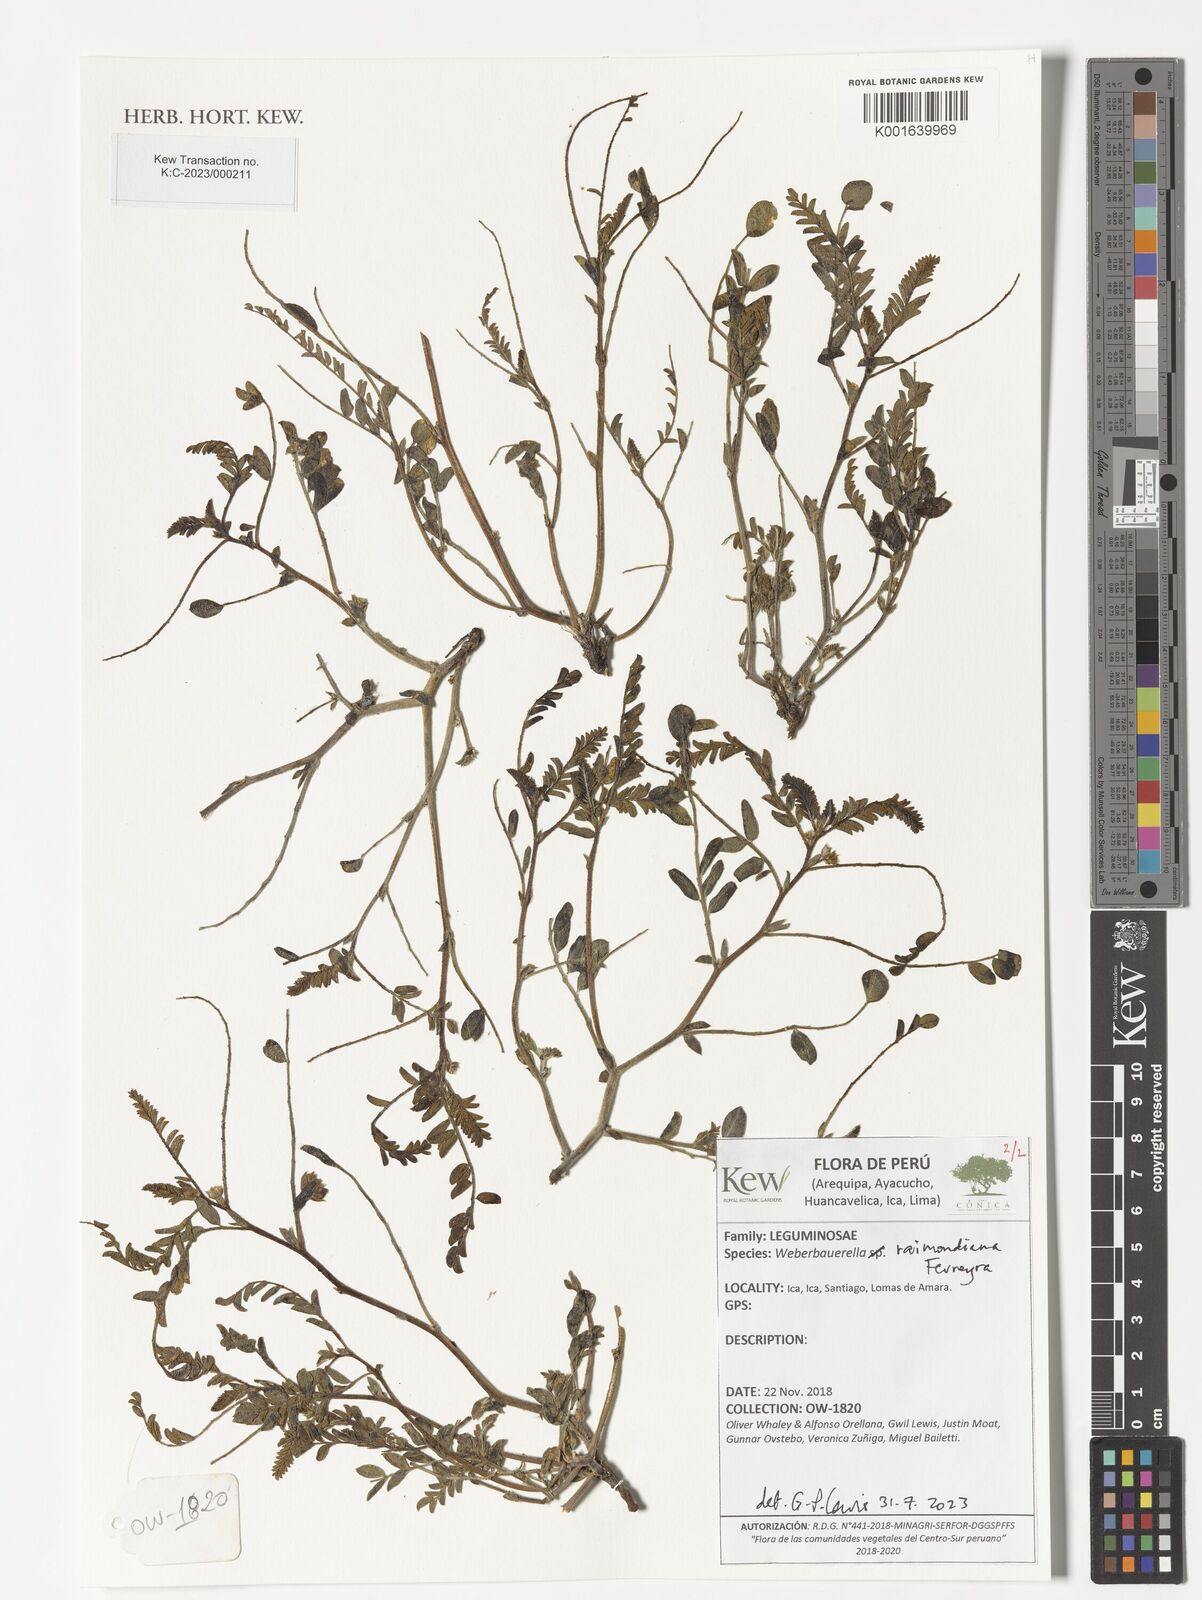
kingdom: Plantae
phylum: Tracheophyta
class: Magnoliopsida
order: Fabales
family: Fabaceae
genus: Weberbauerella
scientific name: Weberbauerella raimondiana
